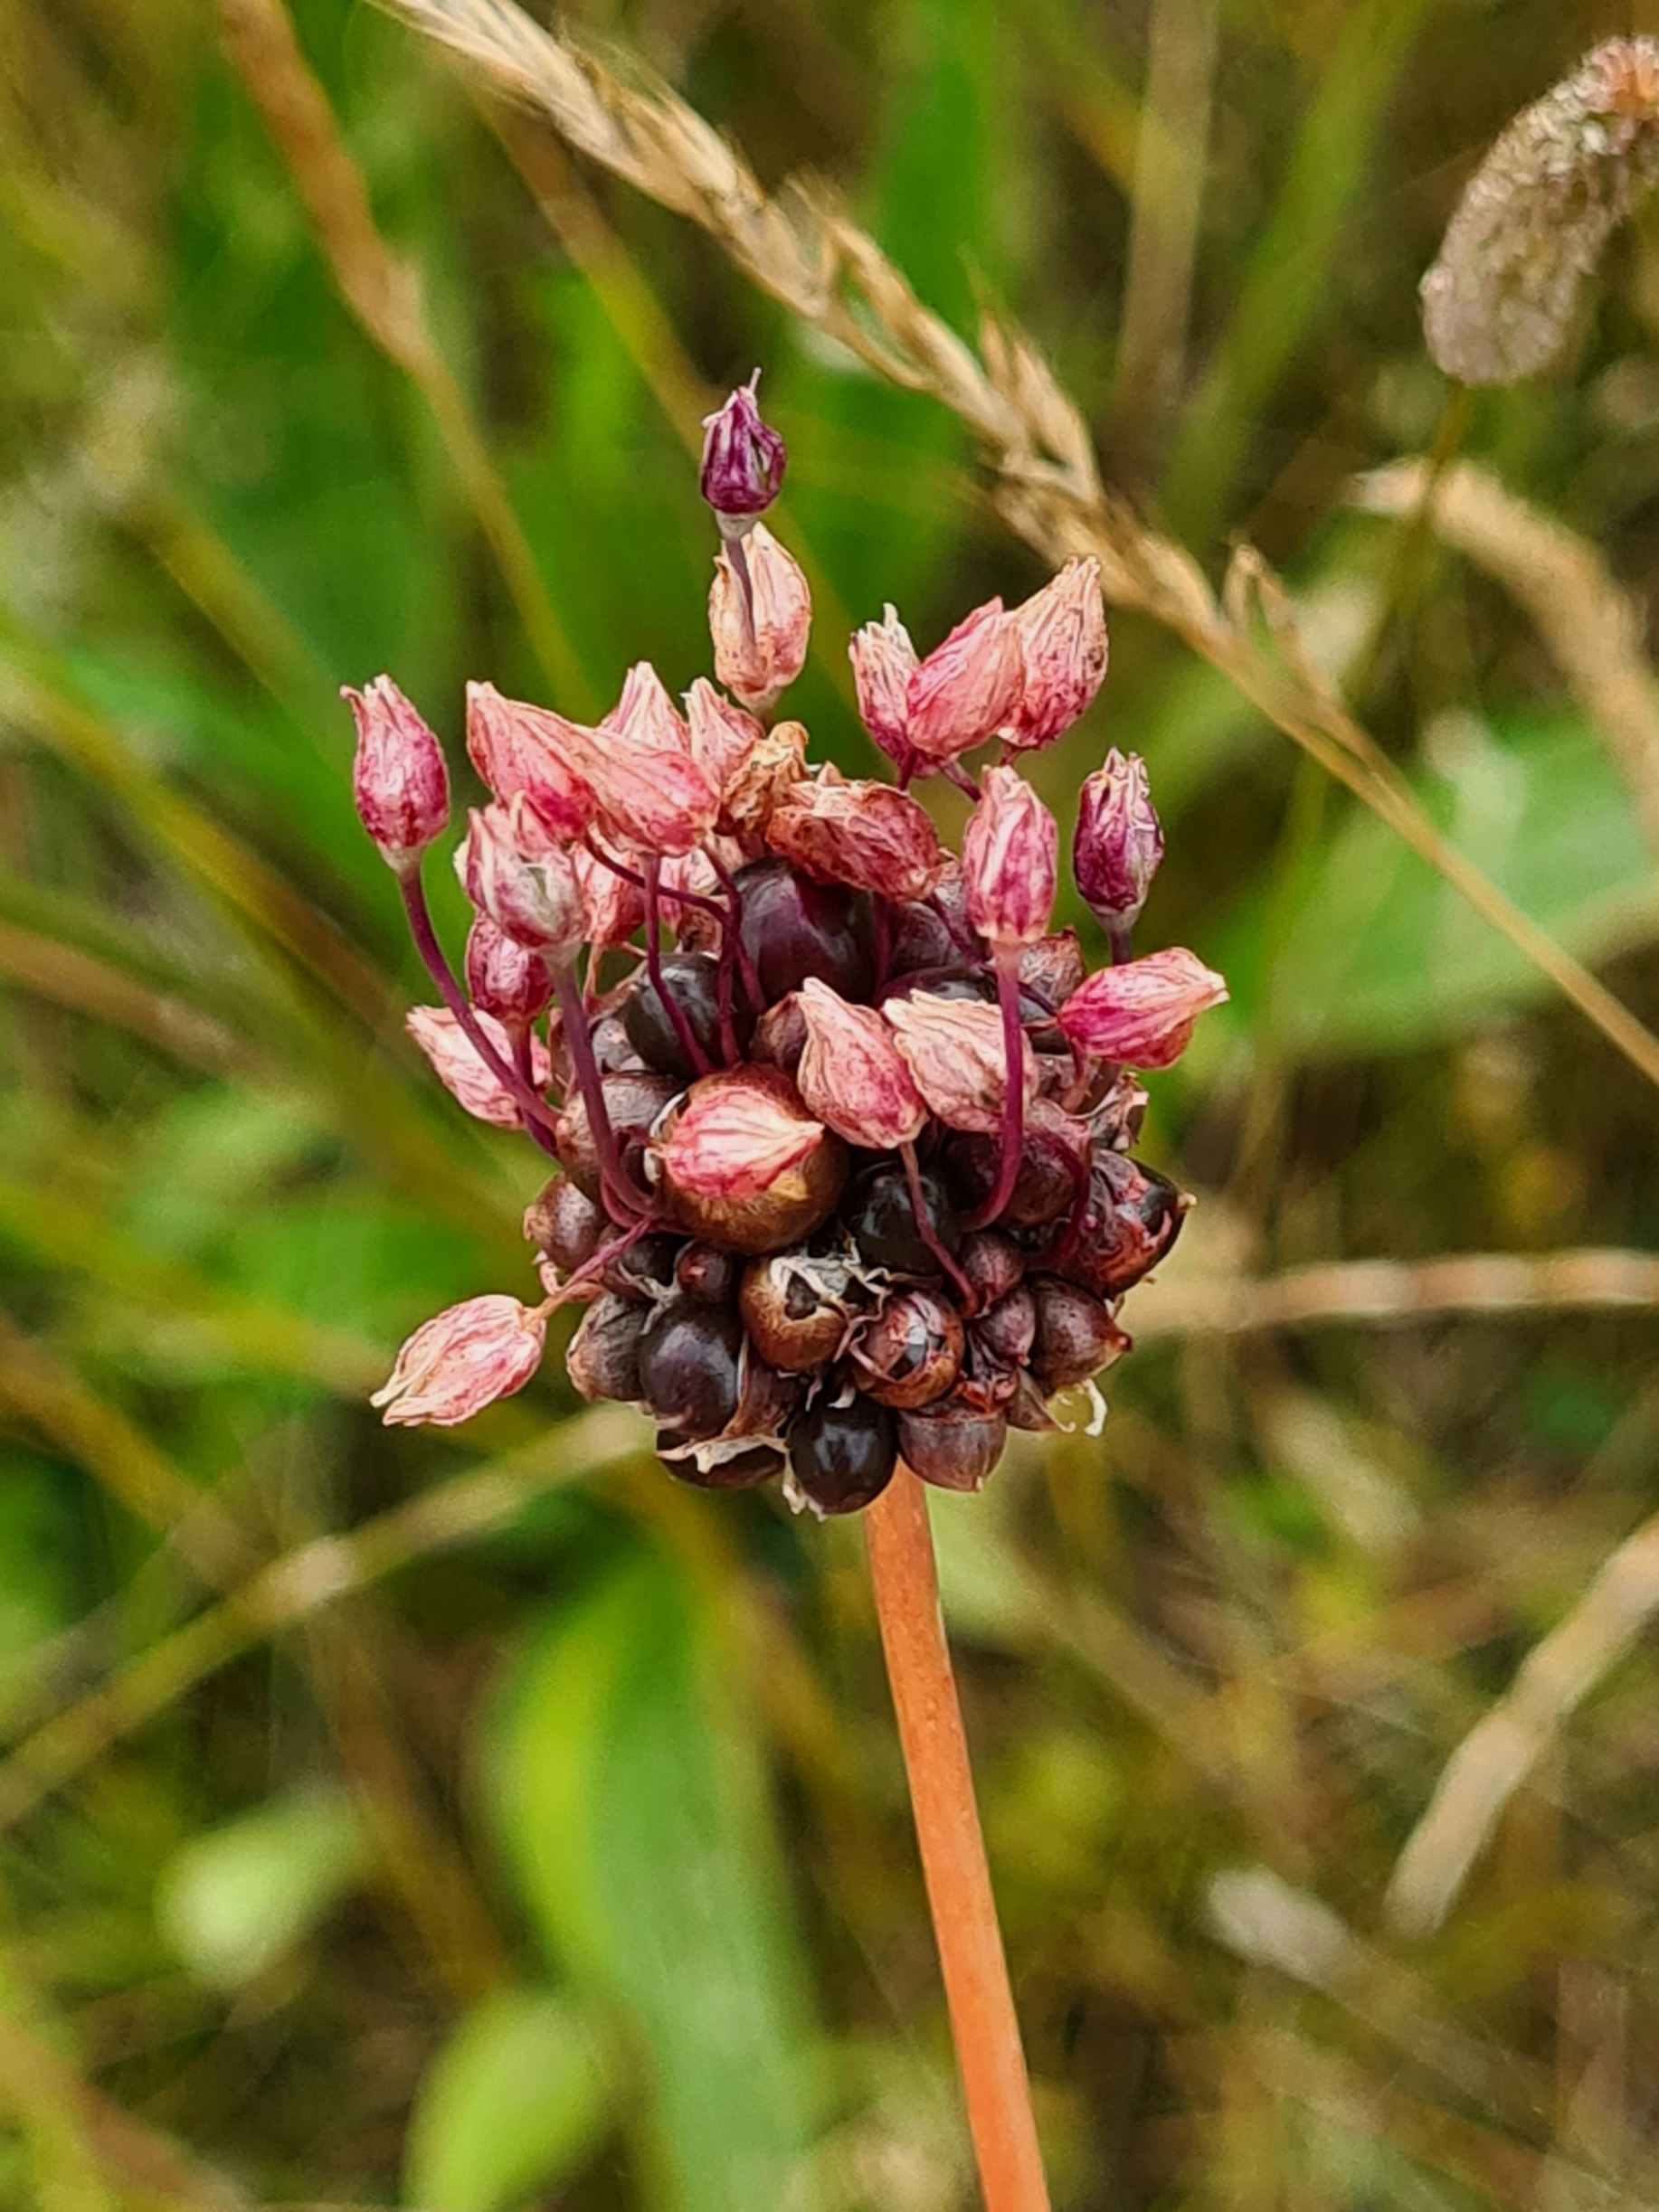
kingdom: Plantae
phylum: Tracheophyta
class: Liliopsida
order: Asparagales
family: Amaryllidaceae
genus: Allium
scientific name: Allium scorodoprasum
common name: Skov-løg
